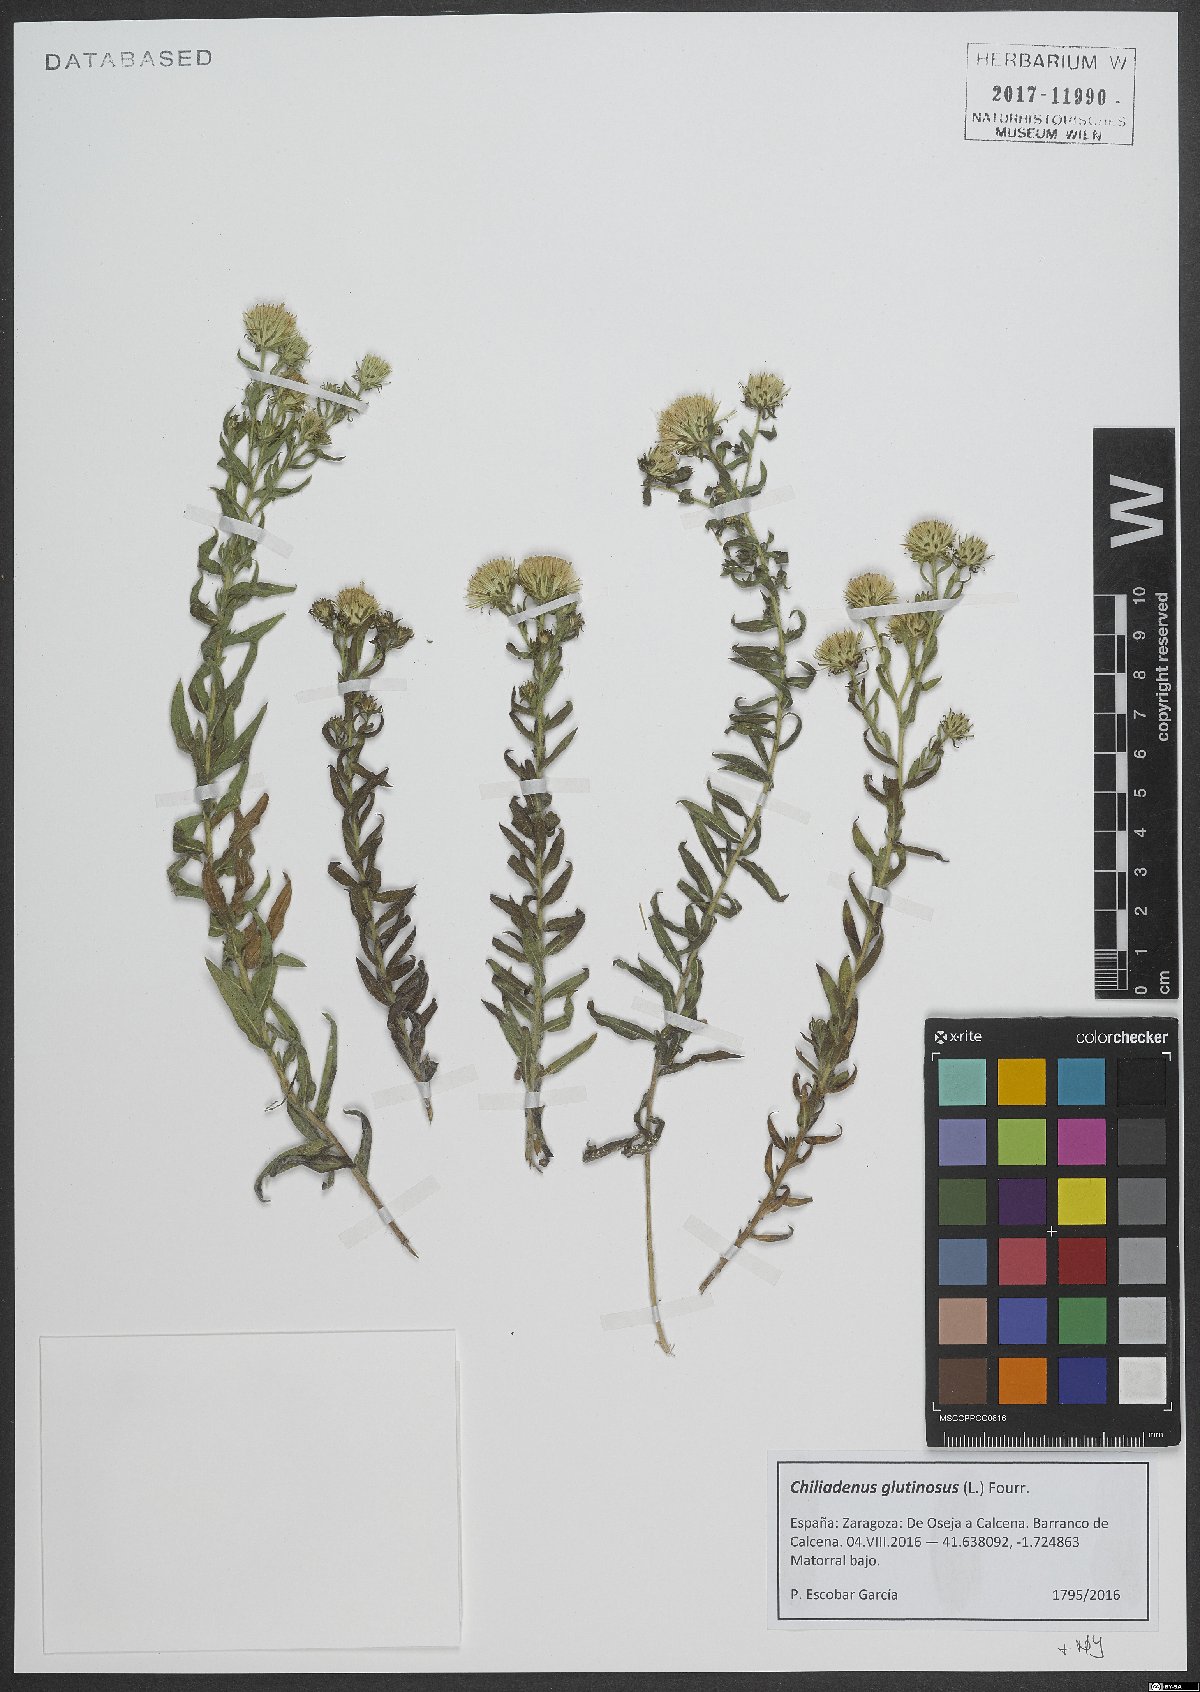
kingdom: Plantae
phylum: Tracheophyta
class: Magnoliopsida
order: Asterales
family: Asteraceae
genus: Chiliadenus
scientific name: Chiliadenus glutinosus
